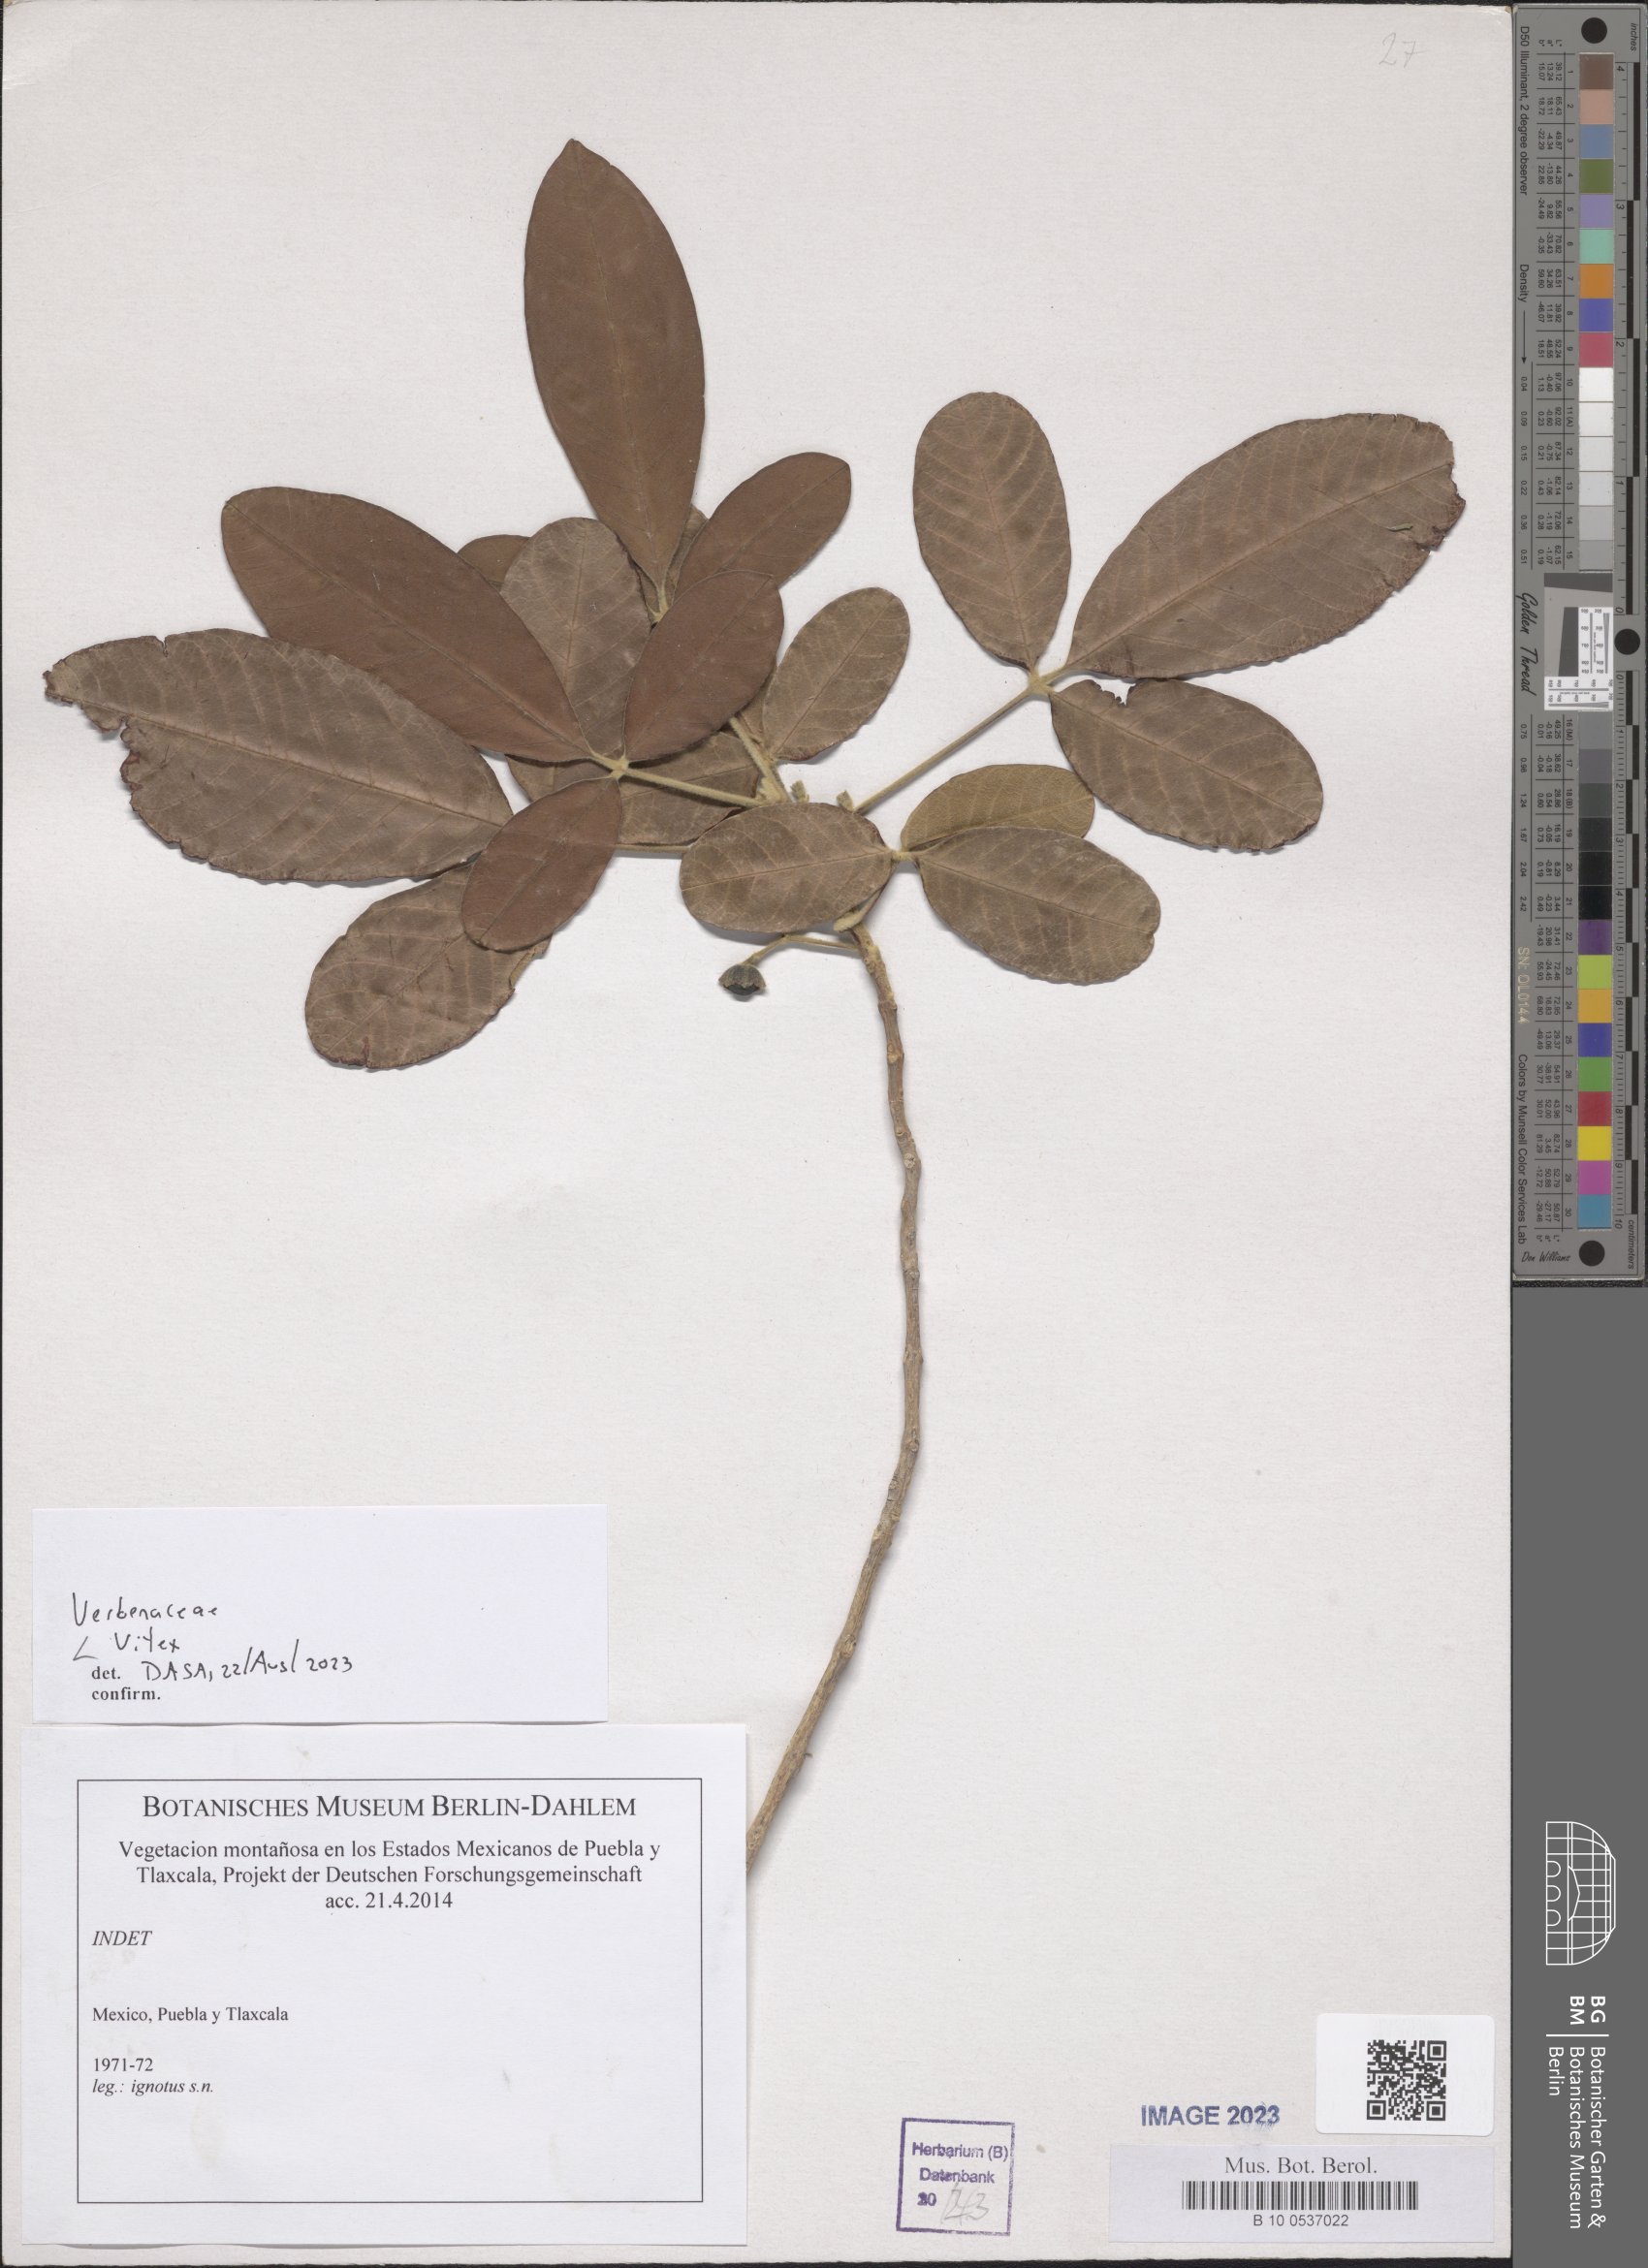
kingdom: Plantae
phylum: Tracheophyta
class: Magnoliopsida
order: Lamiales
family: Lamiaceae
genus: Vitex
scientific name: Vitex
